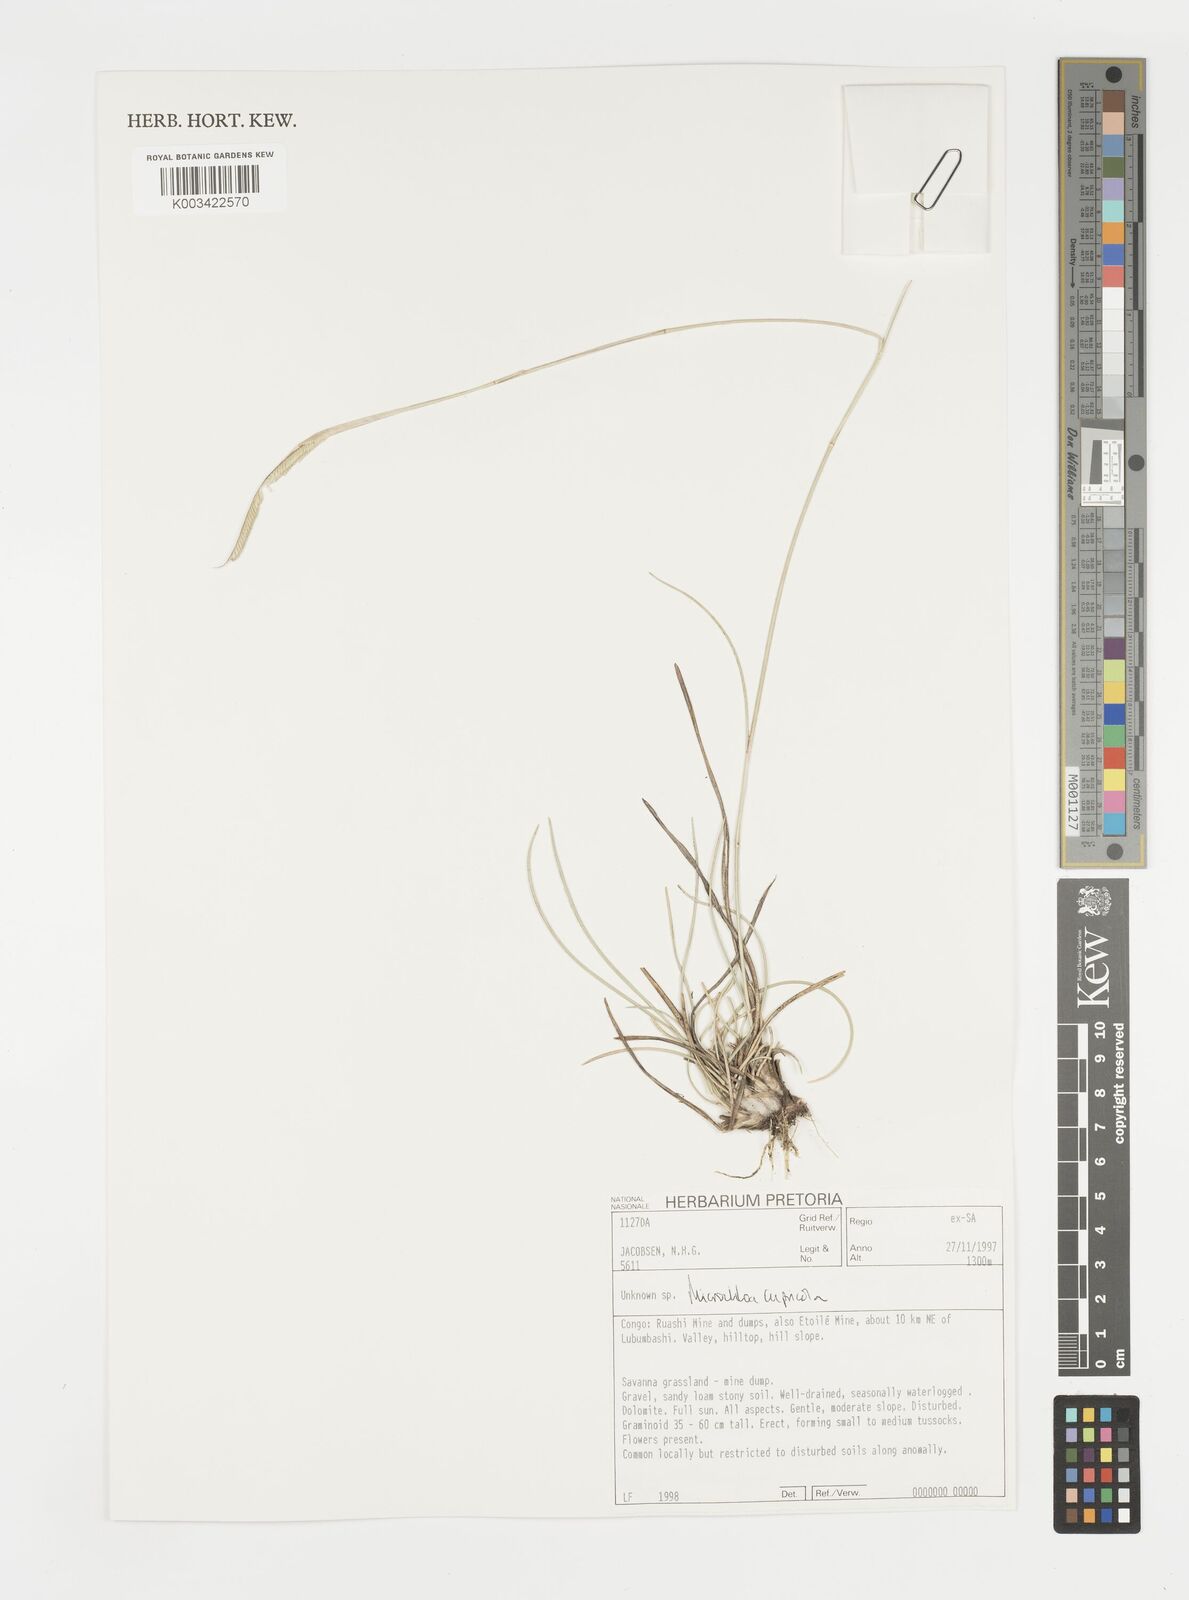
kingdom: Plantae
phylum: Tracheophyta
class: Liliopsida
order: Poales
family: Poaceae
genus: Microchloa
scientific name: Microchloa altera
